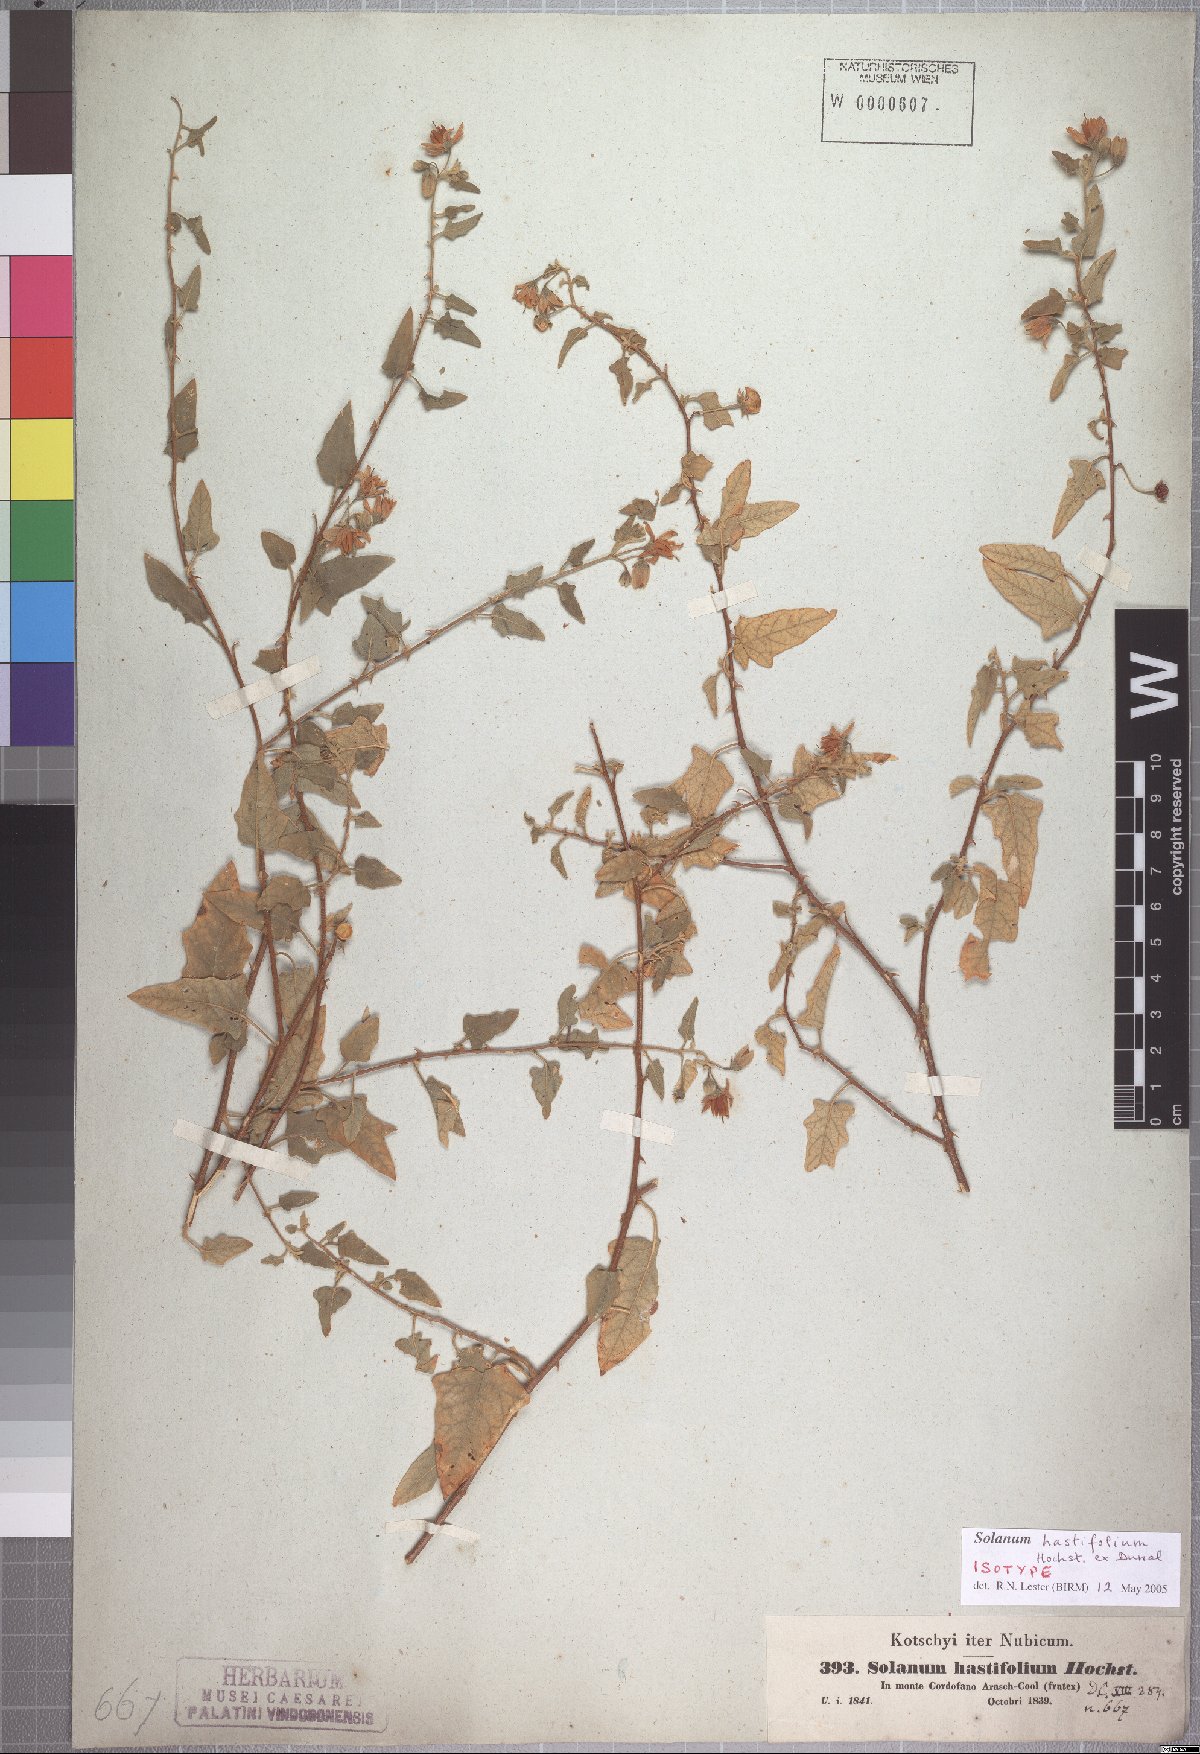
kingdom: Plantae
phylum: Tracheophyta
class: Magnoliopsida
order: Solanales
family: Solanaceae
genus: Solanum
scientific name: Solanum hastifolium
